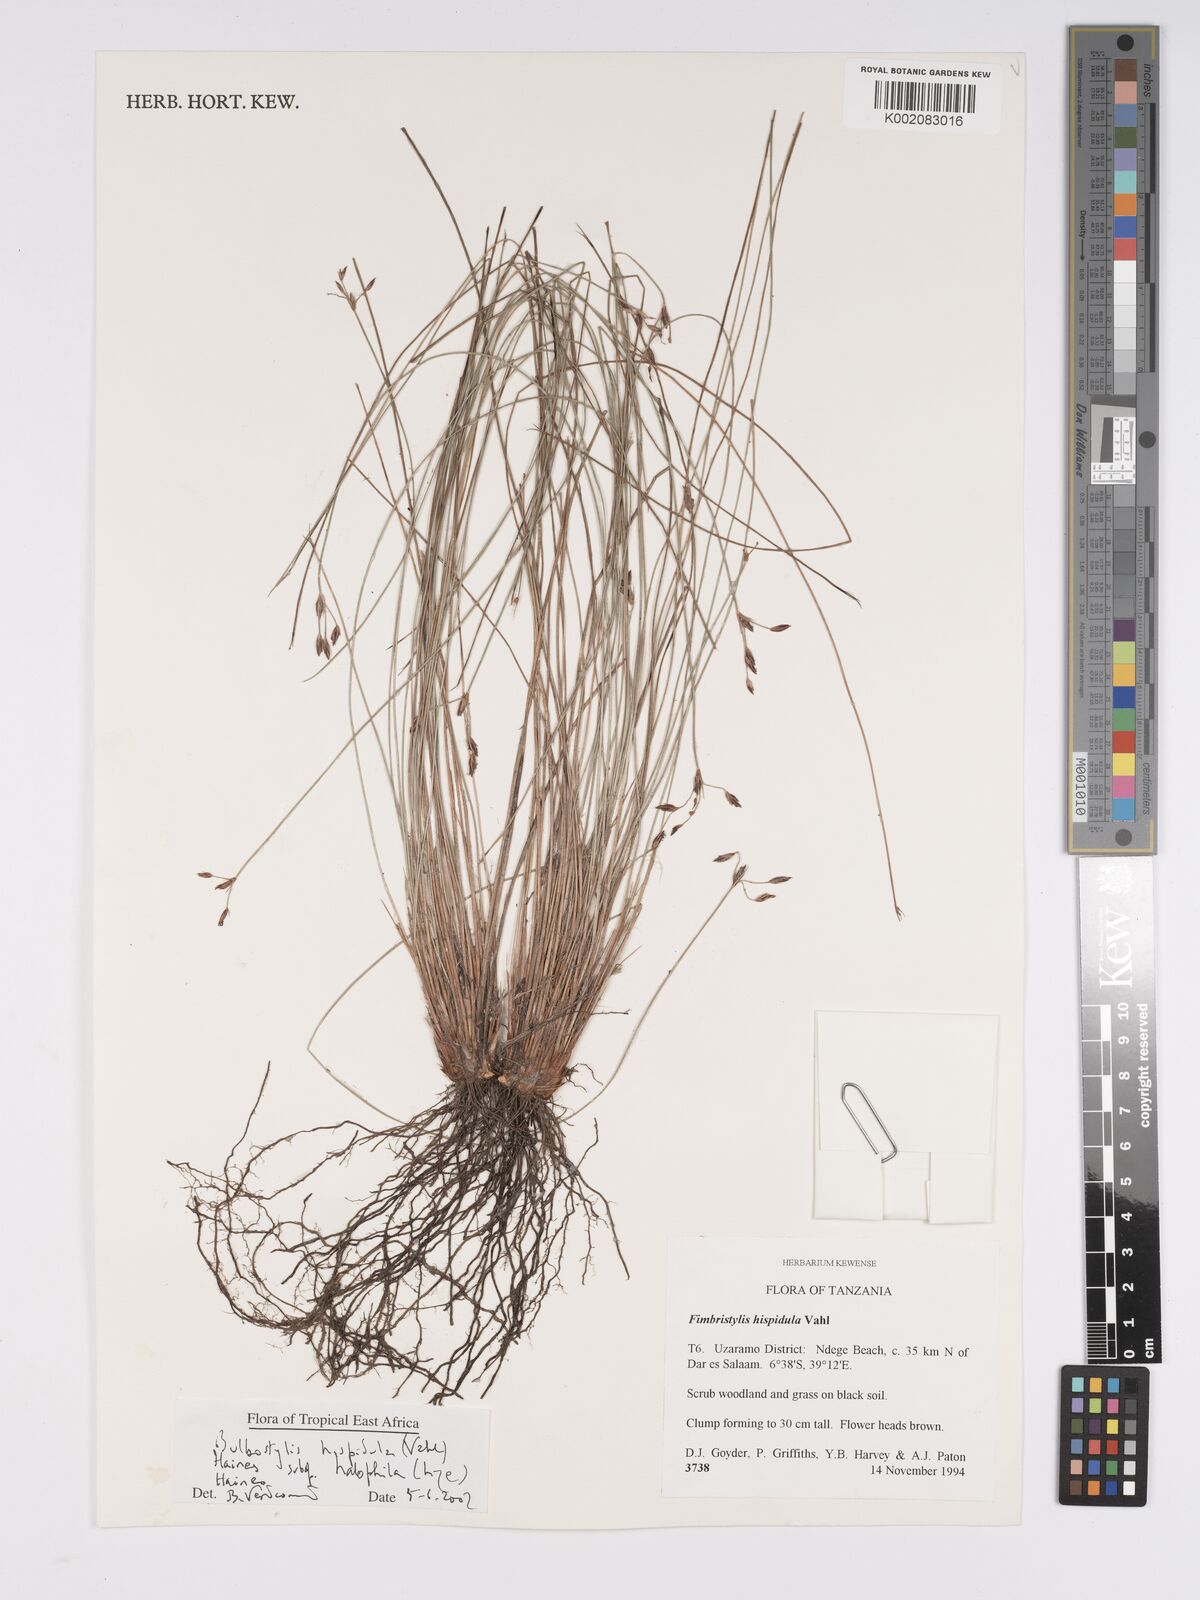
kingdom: Plantae
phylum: Tracheophyta
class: Liliopsida
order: Poales
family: Cyperaceae
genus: Bulbostylis
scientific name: Bulbostylis hispidula
